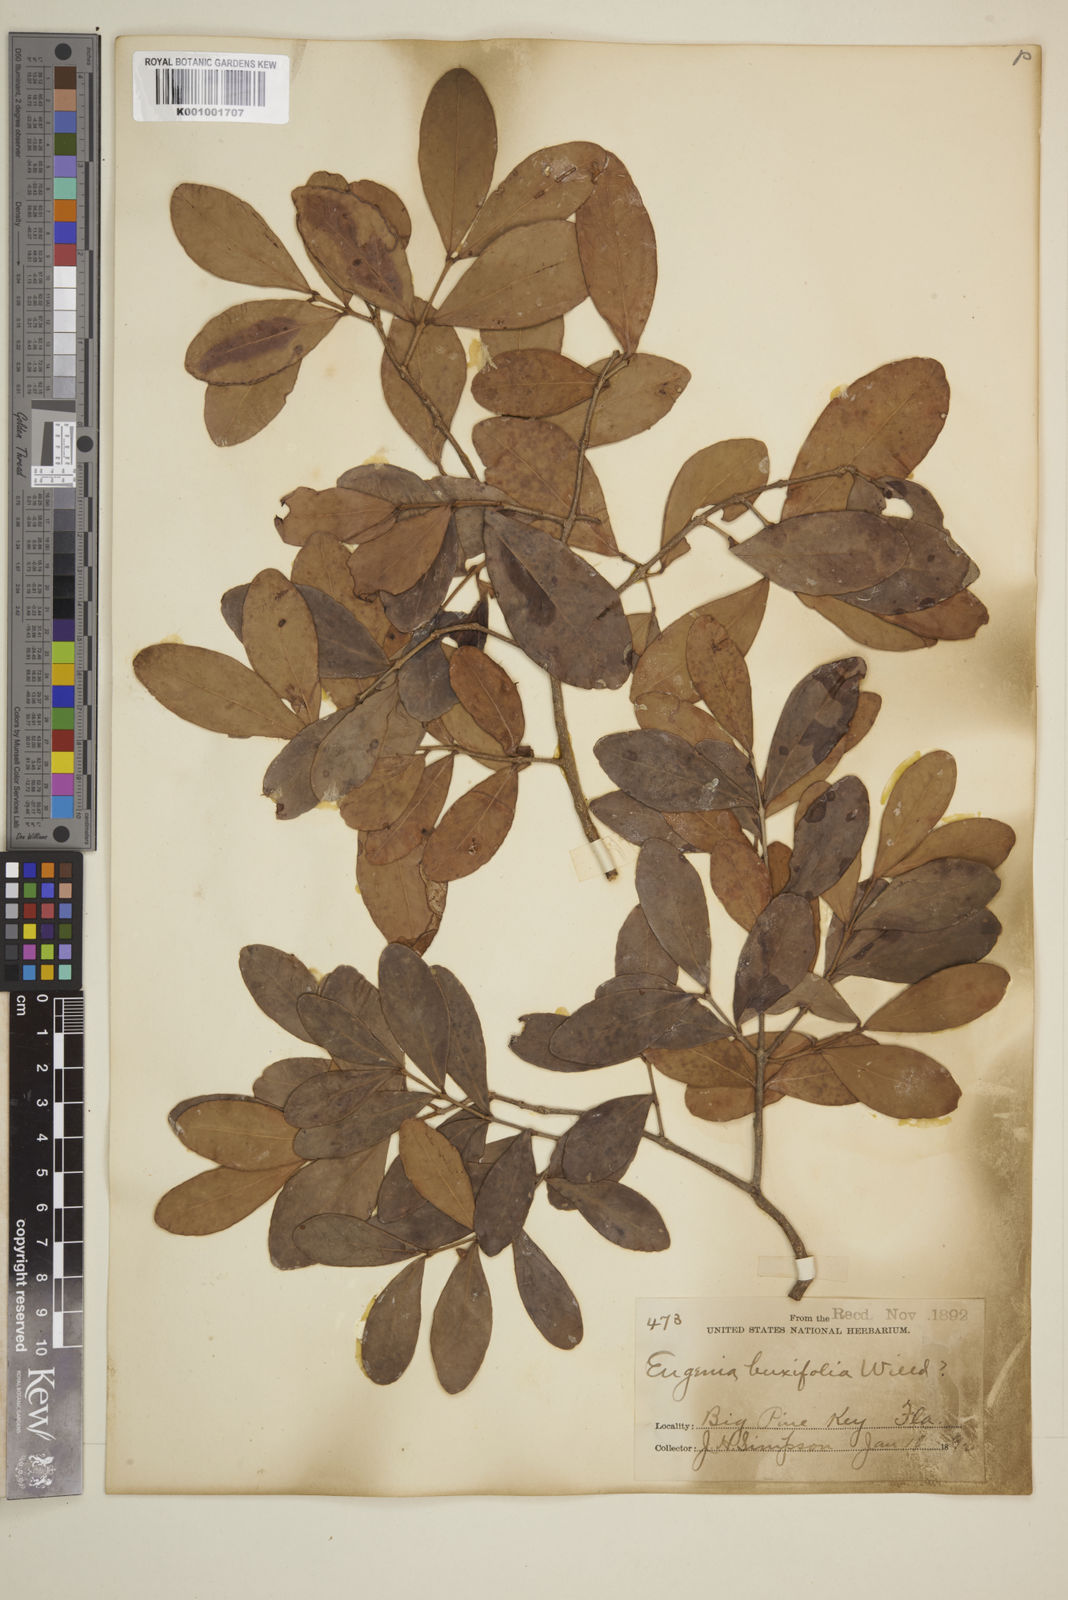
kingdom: Plantae
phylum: Tracheophyta
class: Magnoliopsida
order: Myrtales
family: Myrtaceae
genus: Eugenia
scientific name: Eugenia buxifolia
